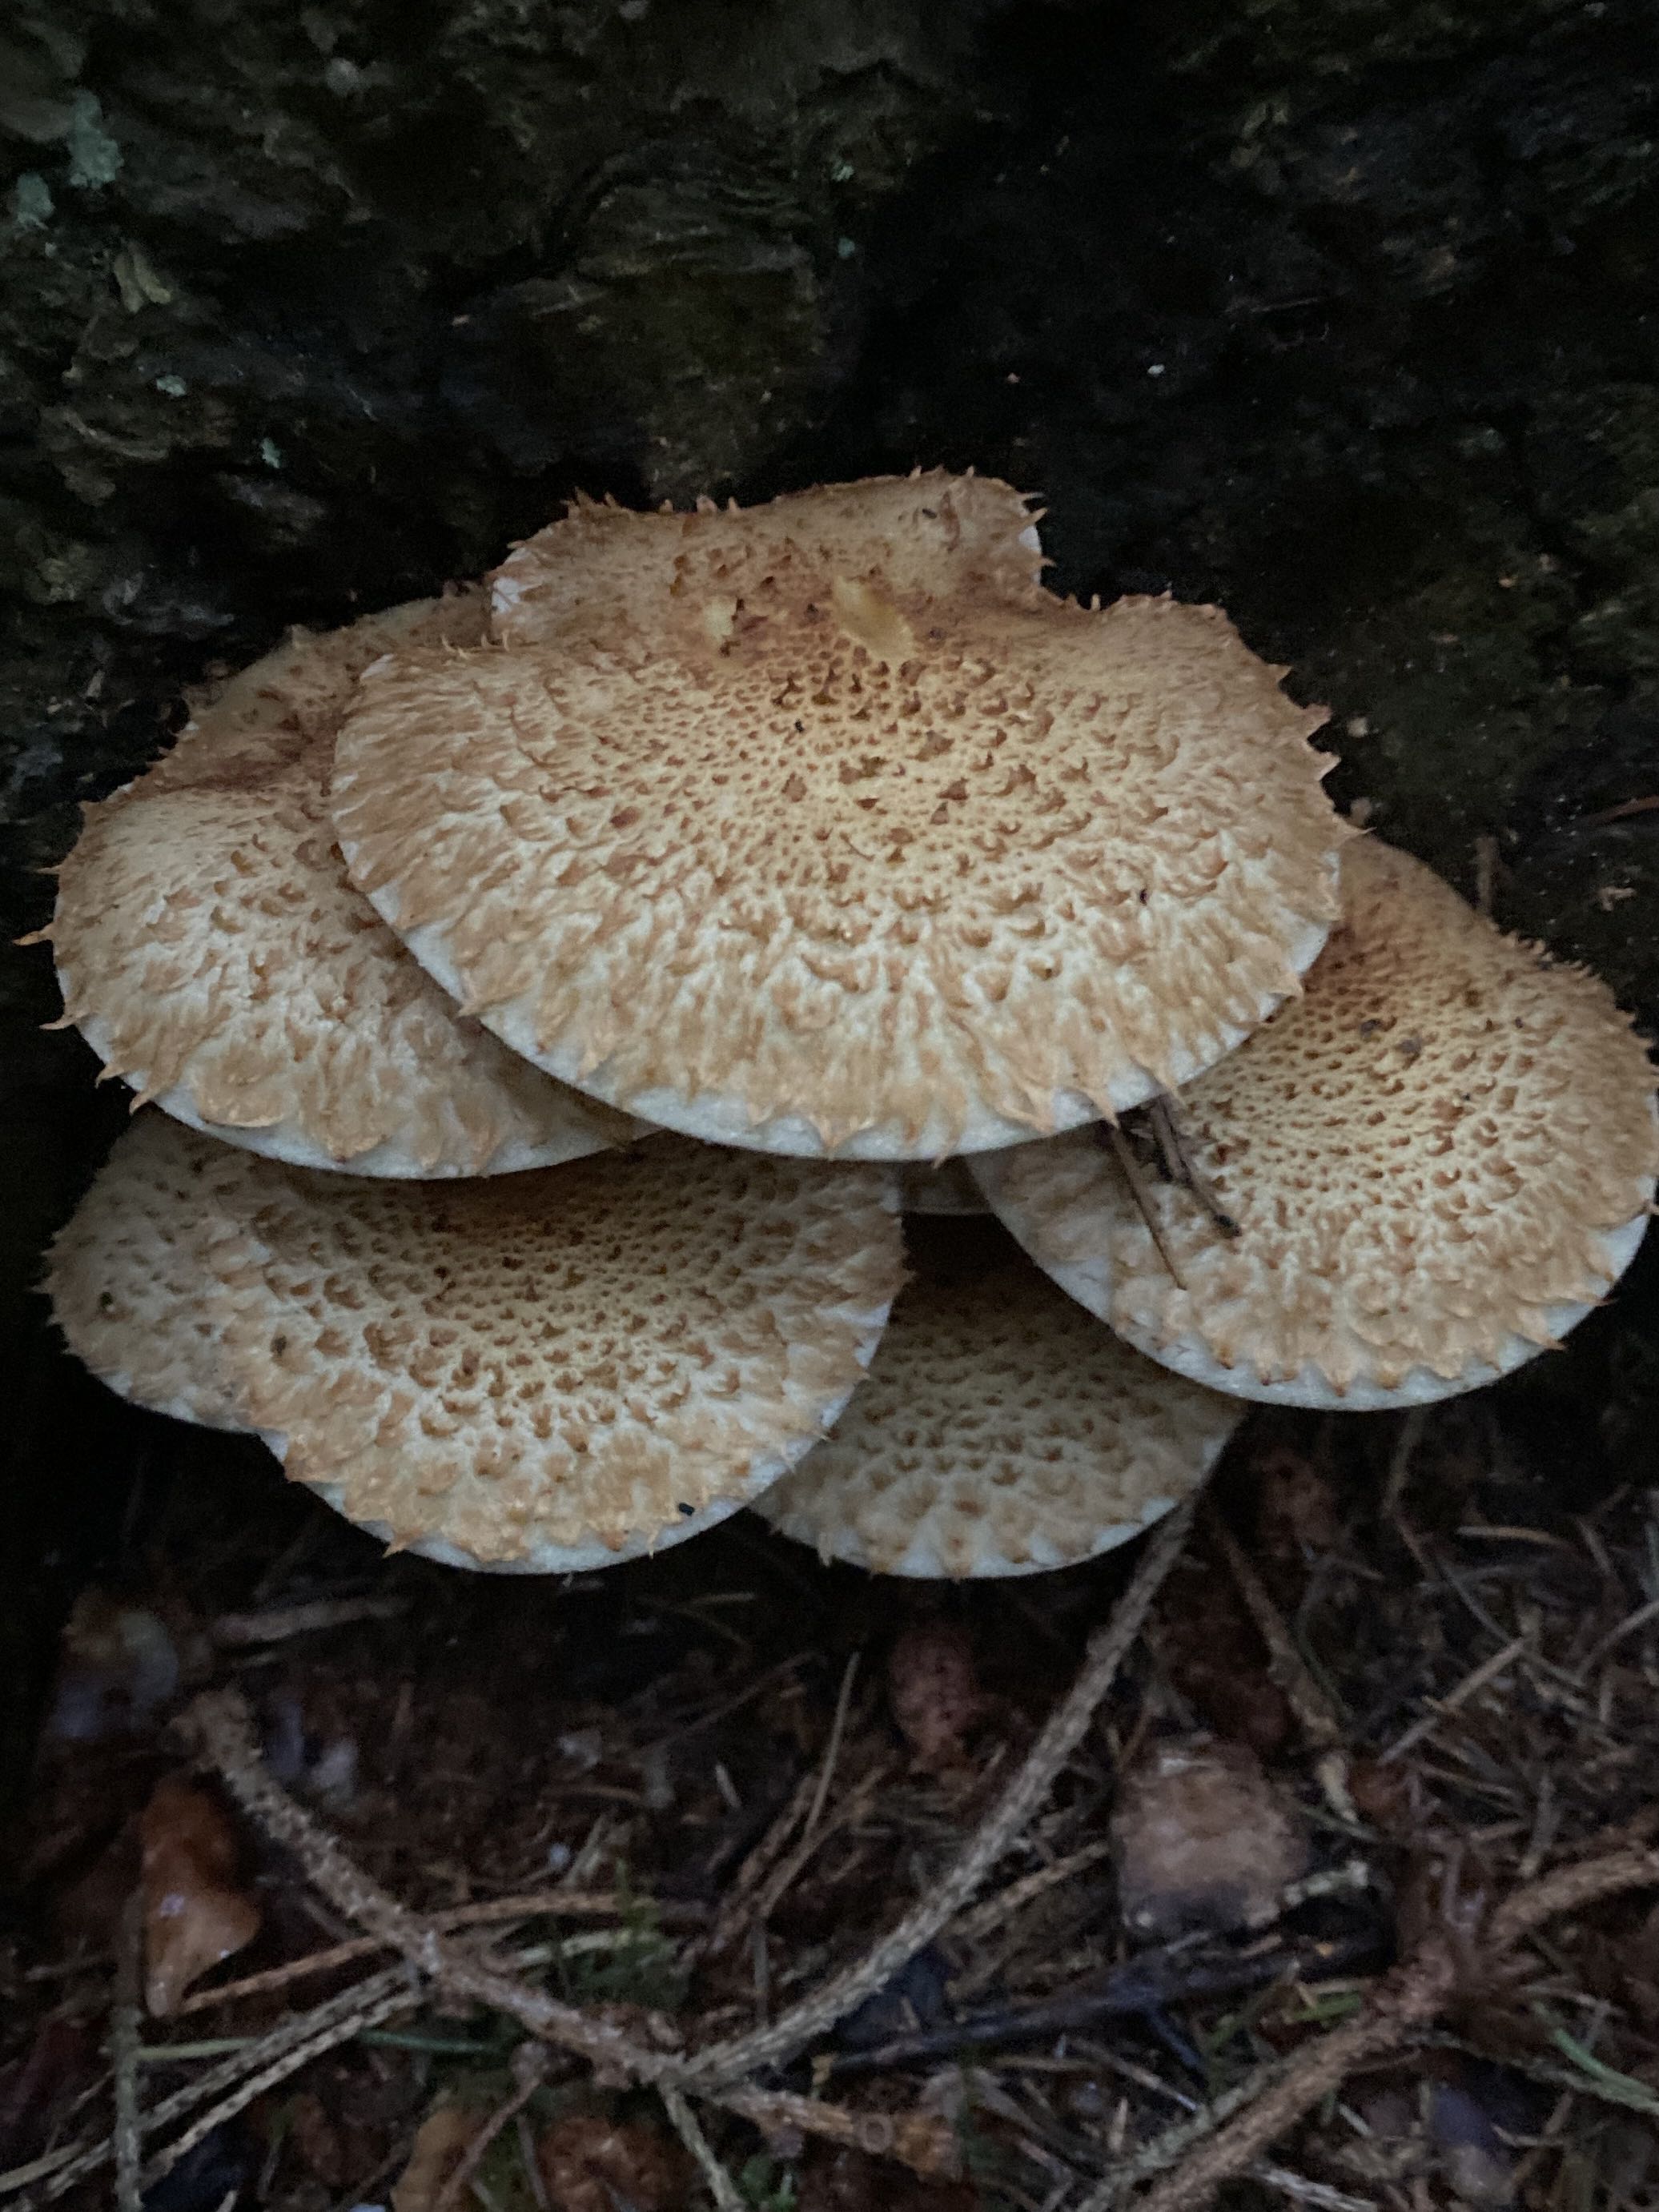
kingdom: Fungi
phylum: Basidiomycota
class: Agaricomycetes
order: Agaricales
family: Strophariaceae
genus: Pholiota
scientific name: Pholiota squarrosa
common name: krumskællet skælhat
